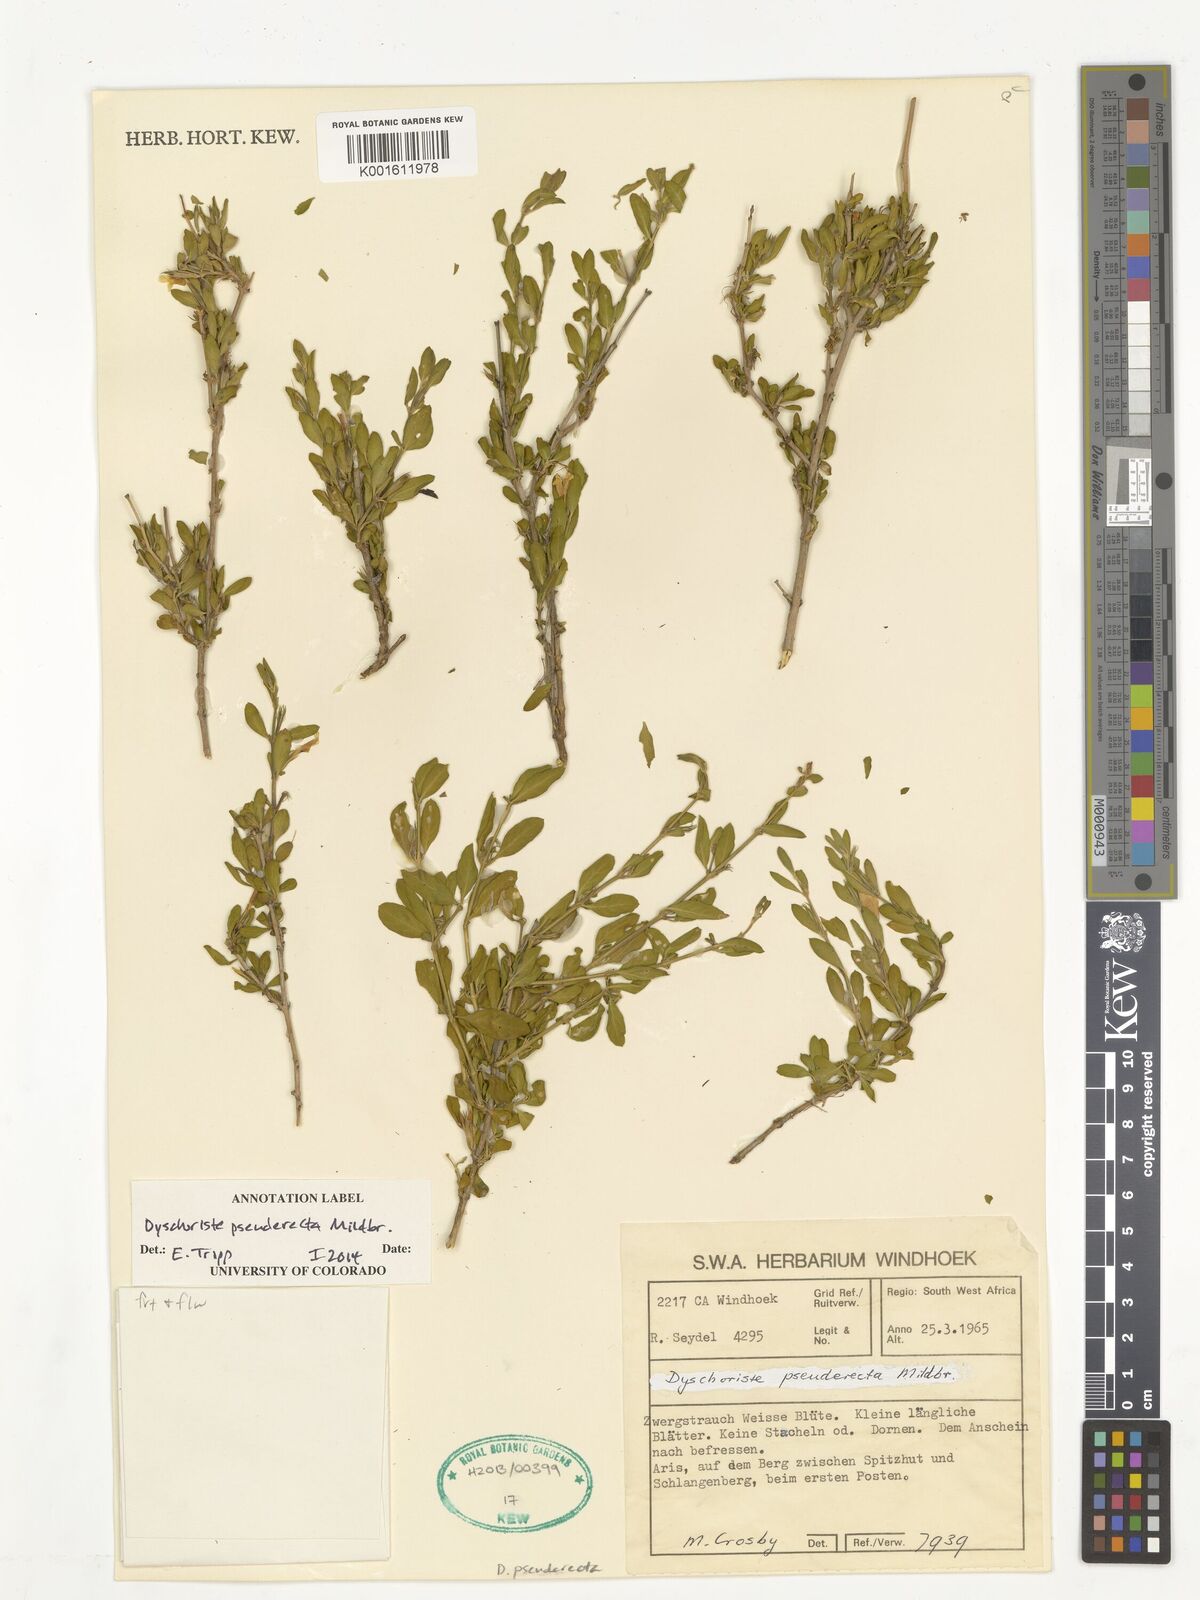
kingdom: Plantae
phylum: Tracheophyta
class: Magnoliopsida
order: Lamiales
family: Acanthaceae
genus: Dyschoriste
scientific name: Dyschoriste pseuderecta
